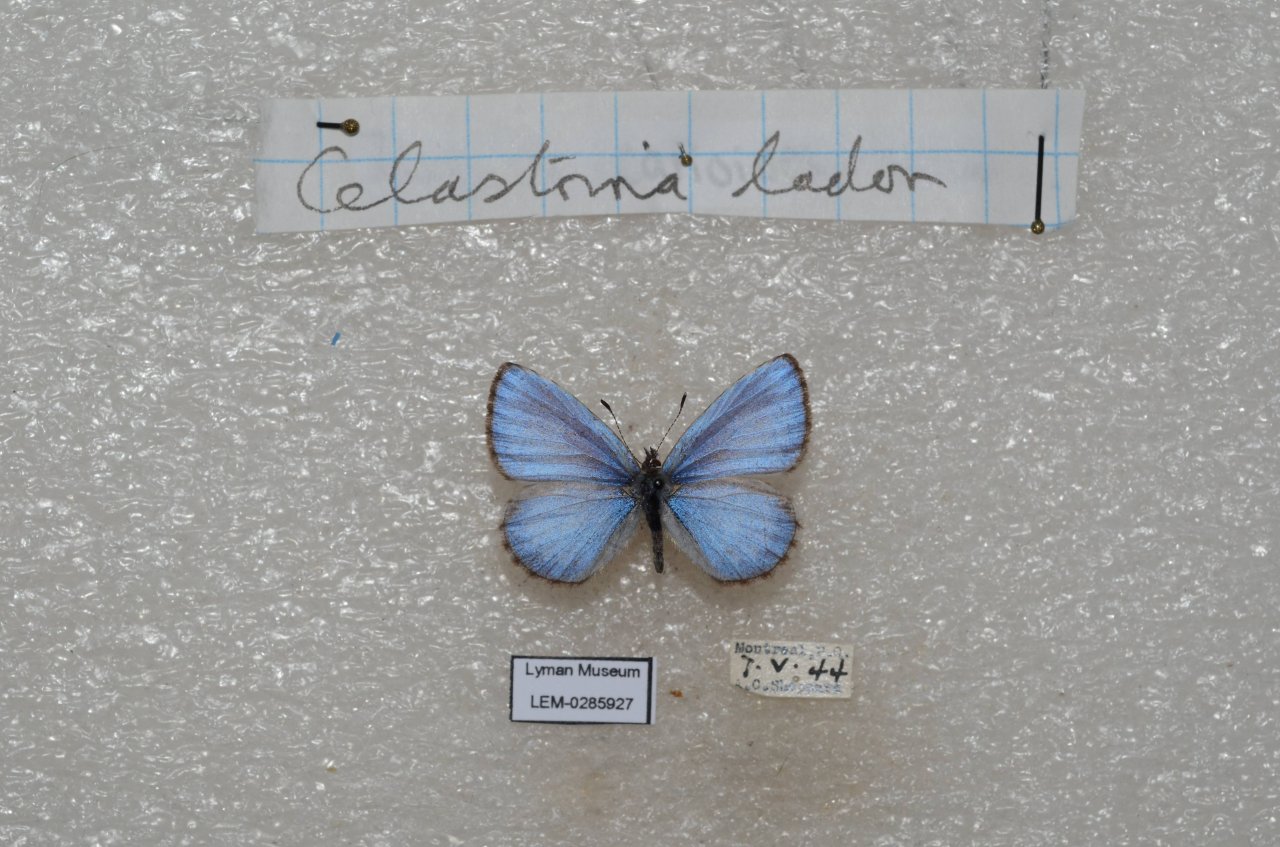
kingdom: Animalia
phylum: Arthropoda
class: Insecta
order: Lepidoptera
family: Lycaenidae
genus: Celastrina
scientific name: Celastrina lucia
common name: Northern Spring Azure
